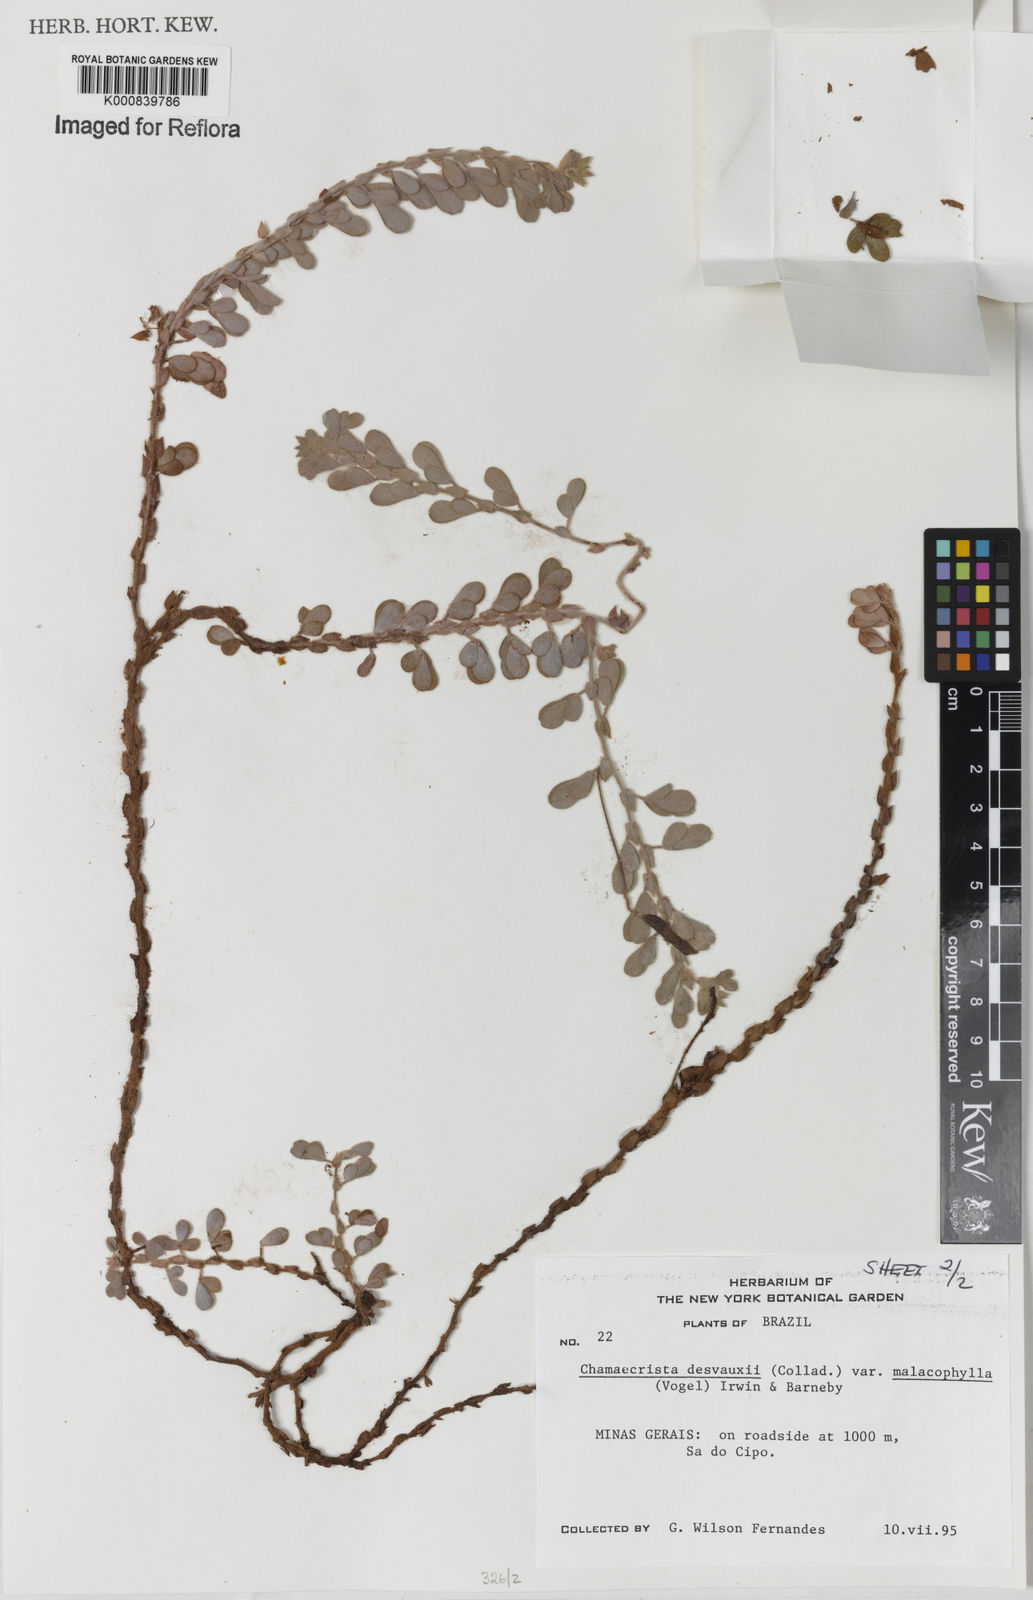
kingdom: Plantae
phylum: Tracheophyta
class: Magnoliopsida
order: Fabales
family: Fabaceae
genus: Chamaecrista
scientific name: Chamaecrista desvauxii
